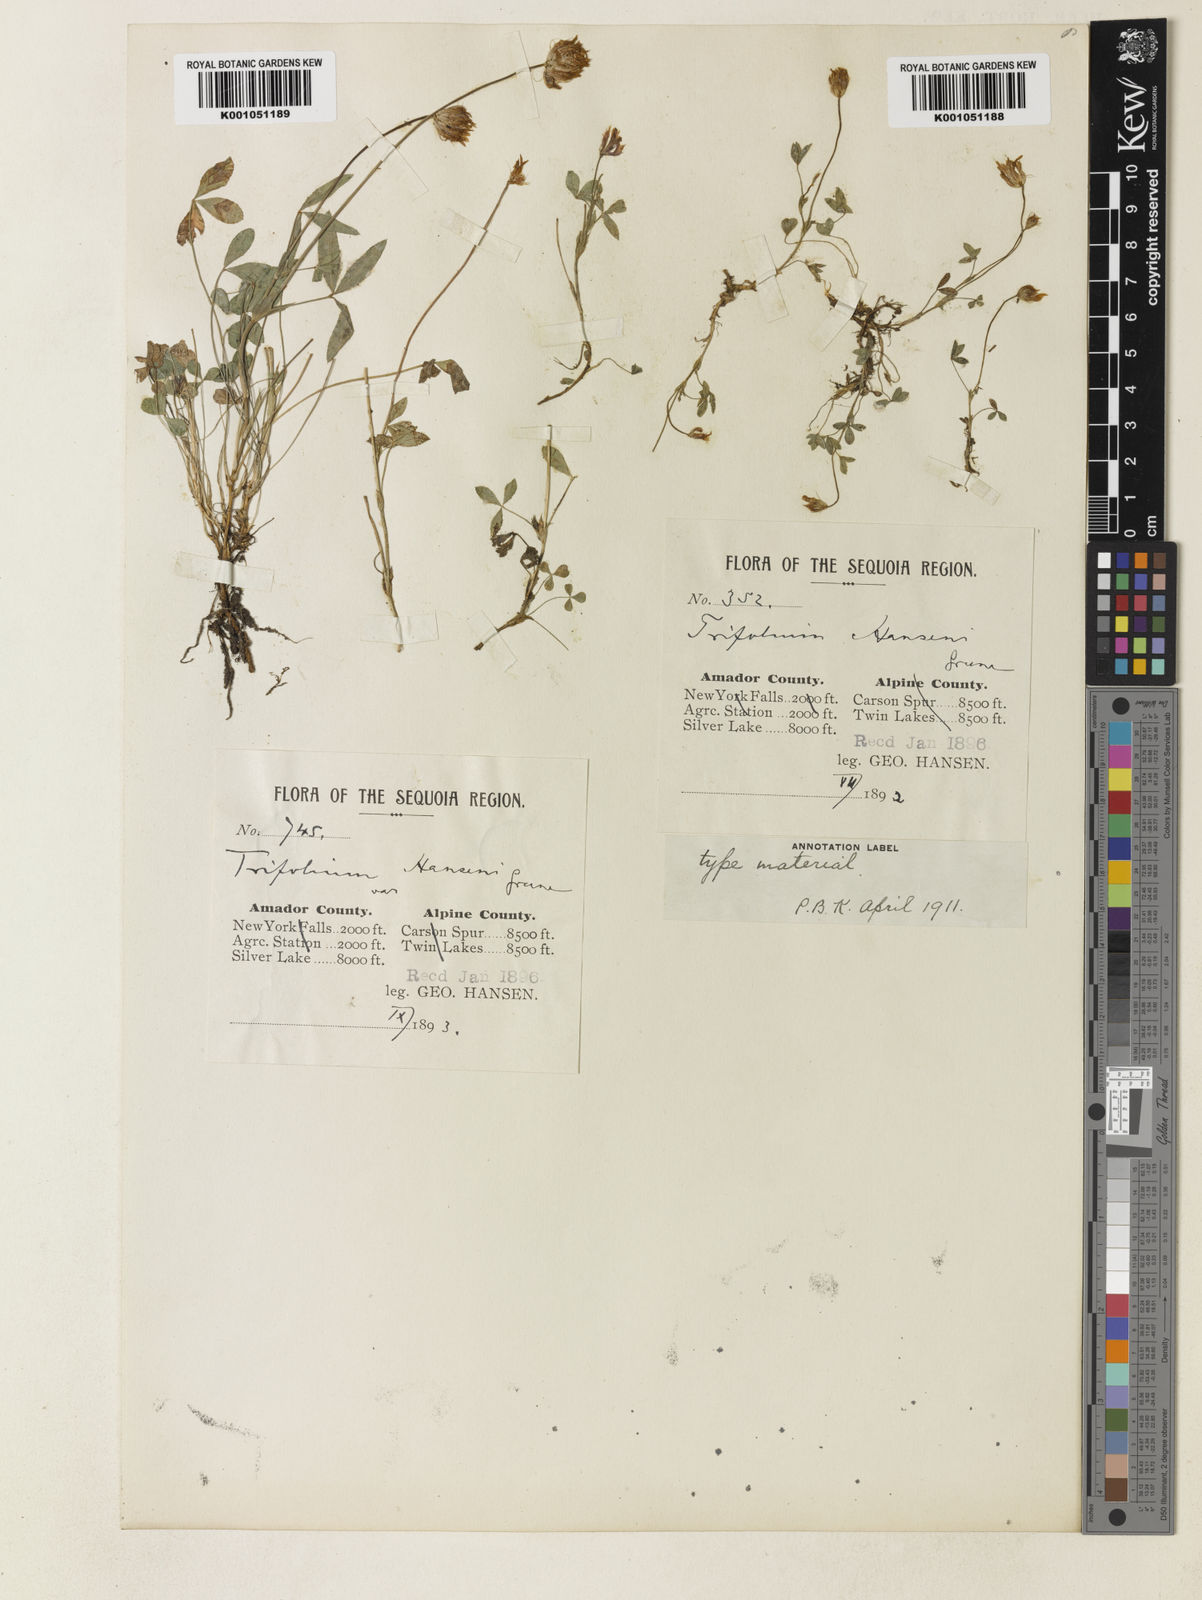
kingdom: Plantae
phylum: Tracheophyta
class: Magnoliopsida
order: Fabales
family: Fabaceae
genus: Trifolium
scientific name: Trifolium longipes
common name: Long-stalk clover
